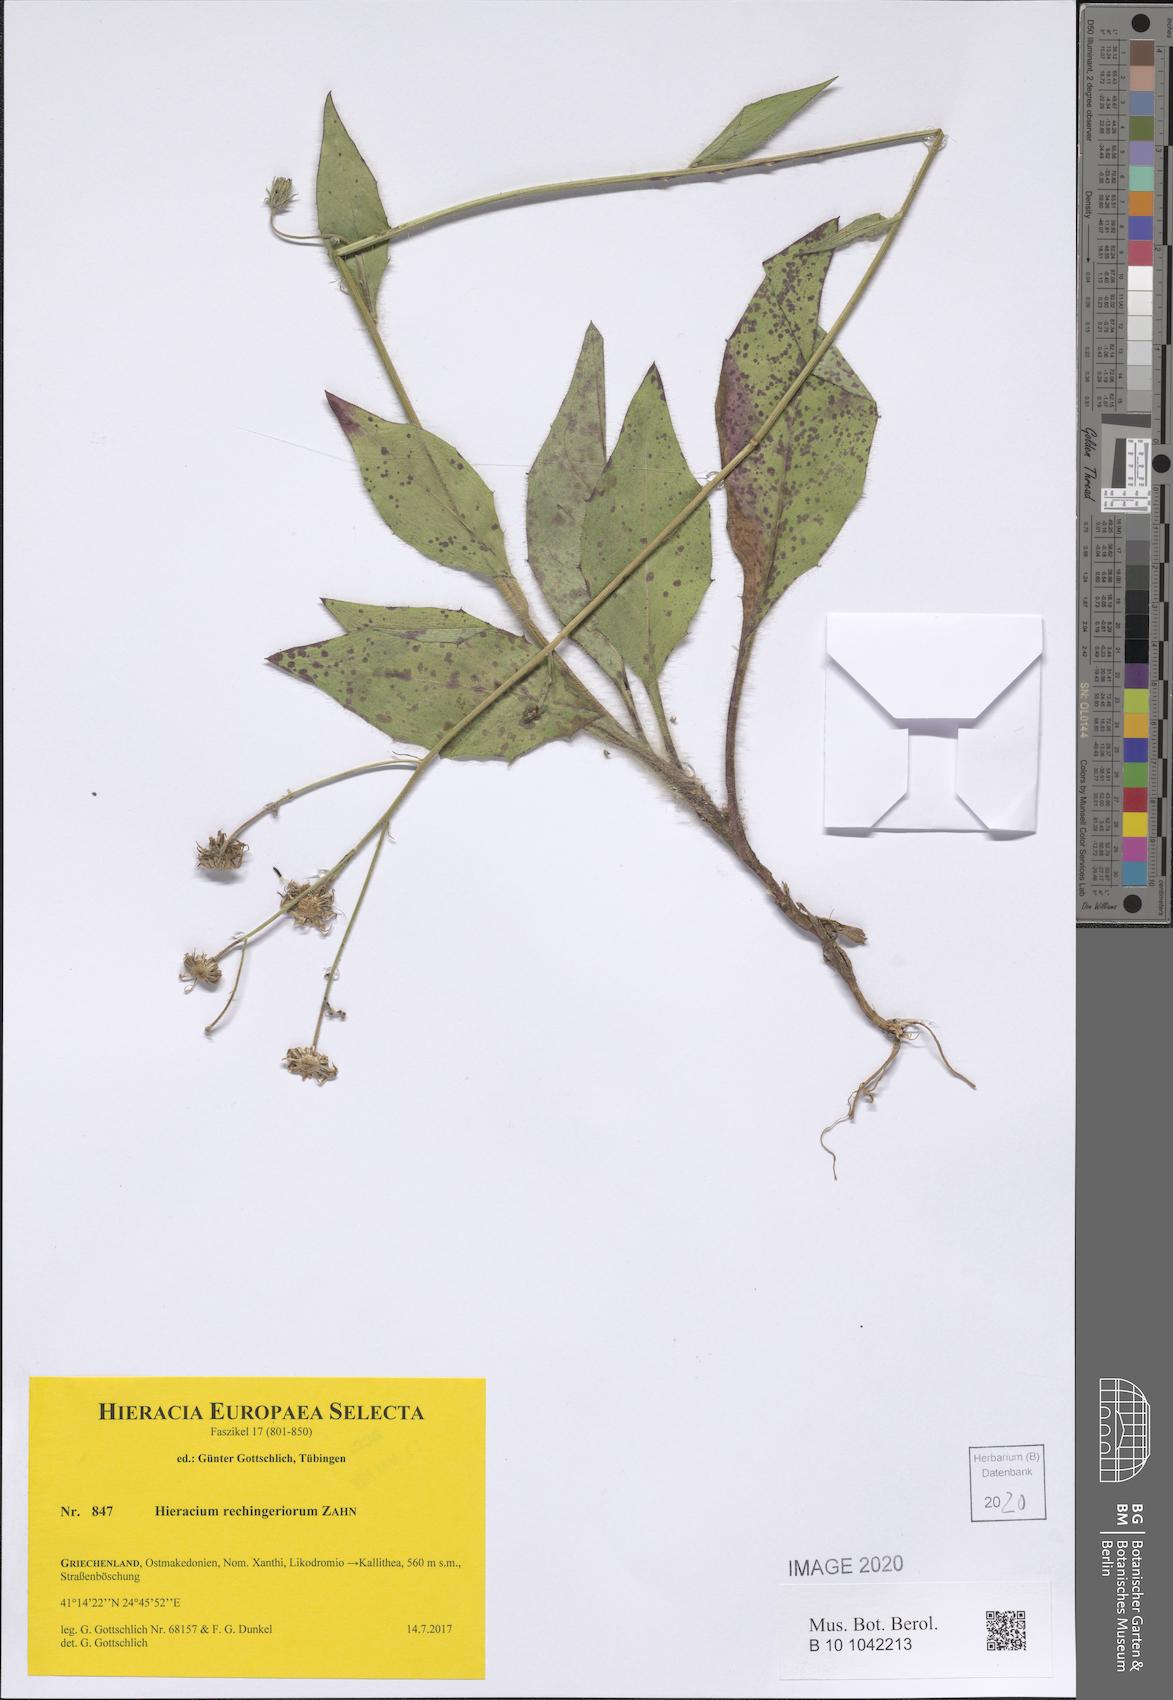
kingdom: Plantae
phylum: Tracheophyta
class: Magnoliopsida
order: Asterales
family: Asteraceae
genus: Hieracium
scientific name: Hieracium rechingerorum
